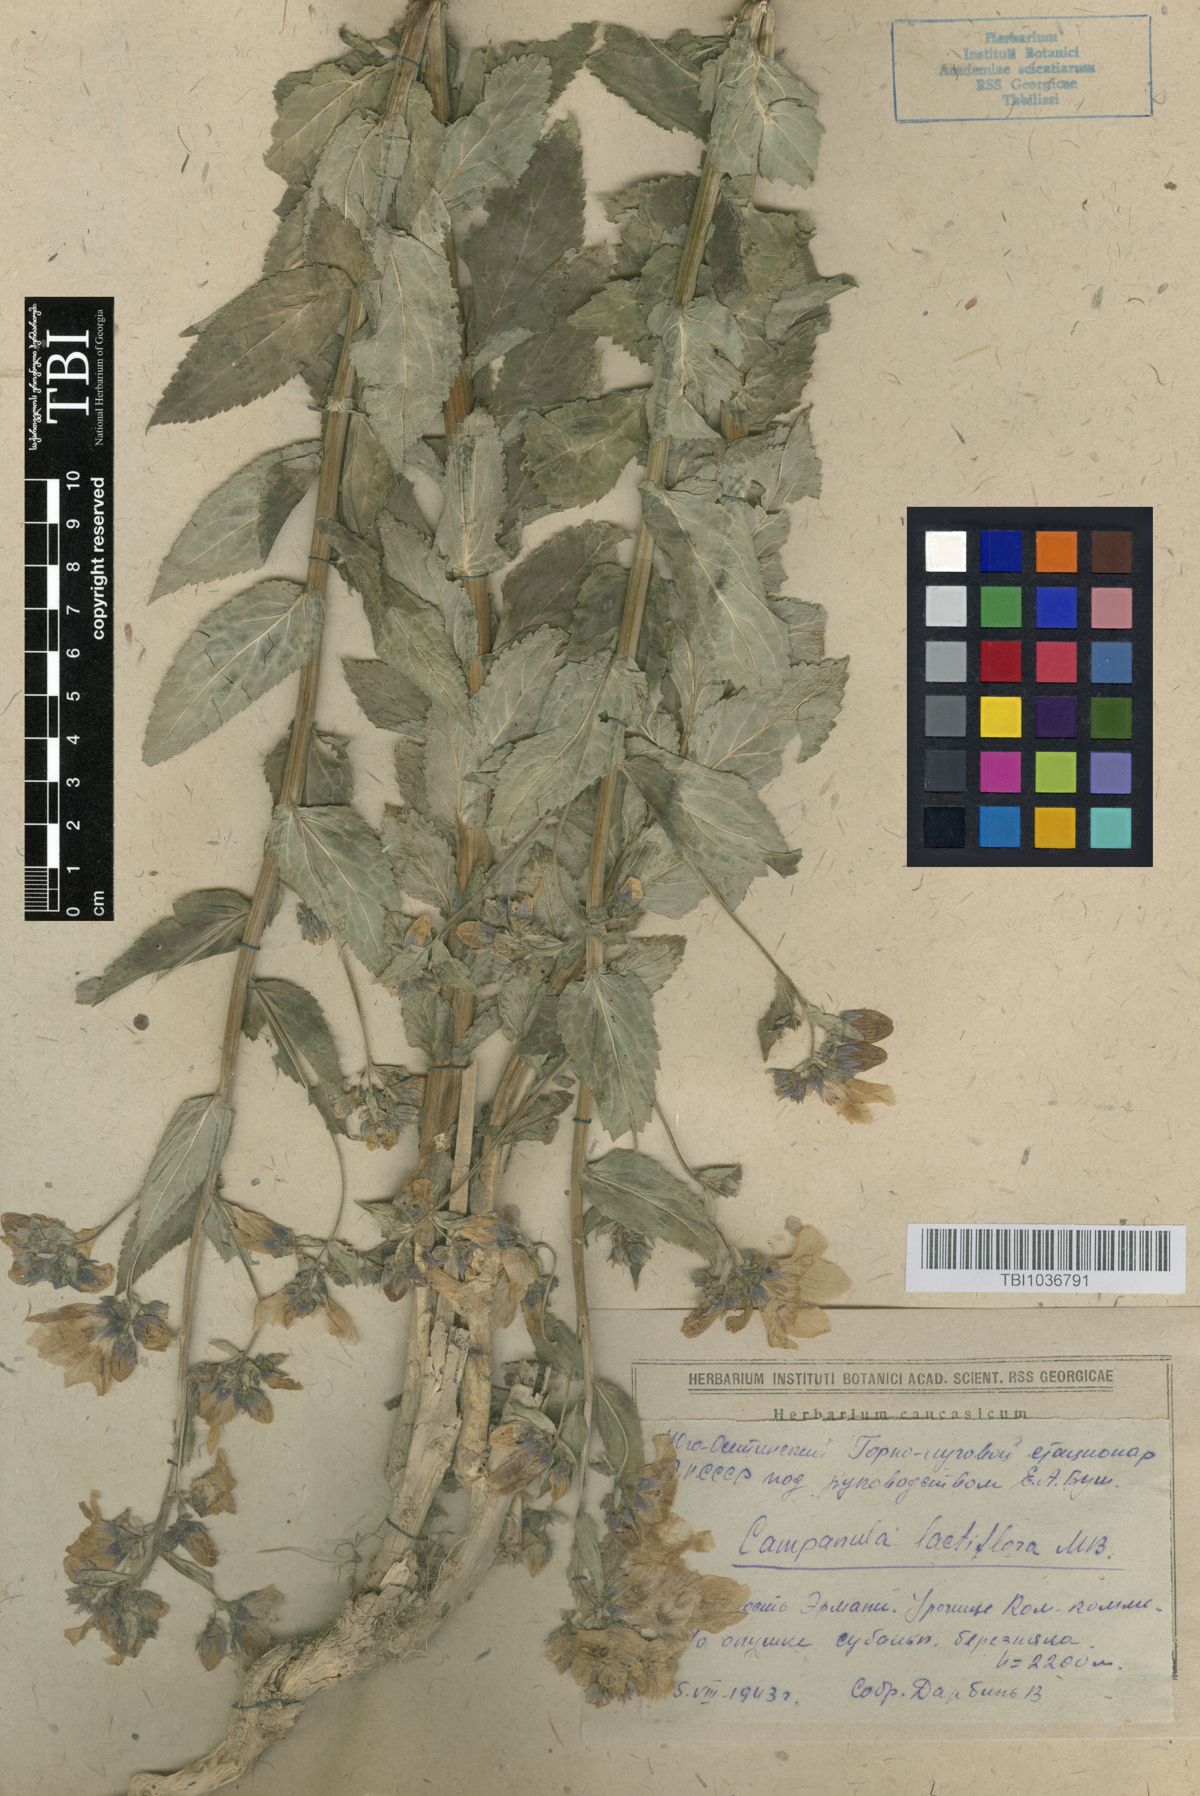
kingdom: Plantae
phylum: Tracheophyta
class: Magnoliopsida
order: Asterales
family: Campanulaceae
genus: Campanula
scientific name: Campanula lactiflora
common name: Milky bellflower
